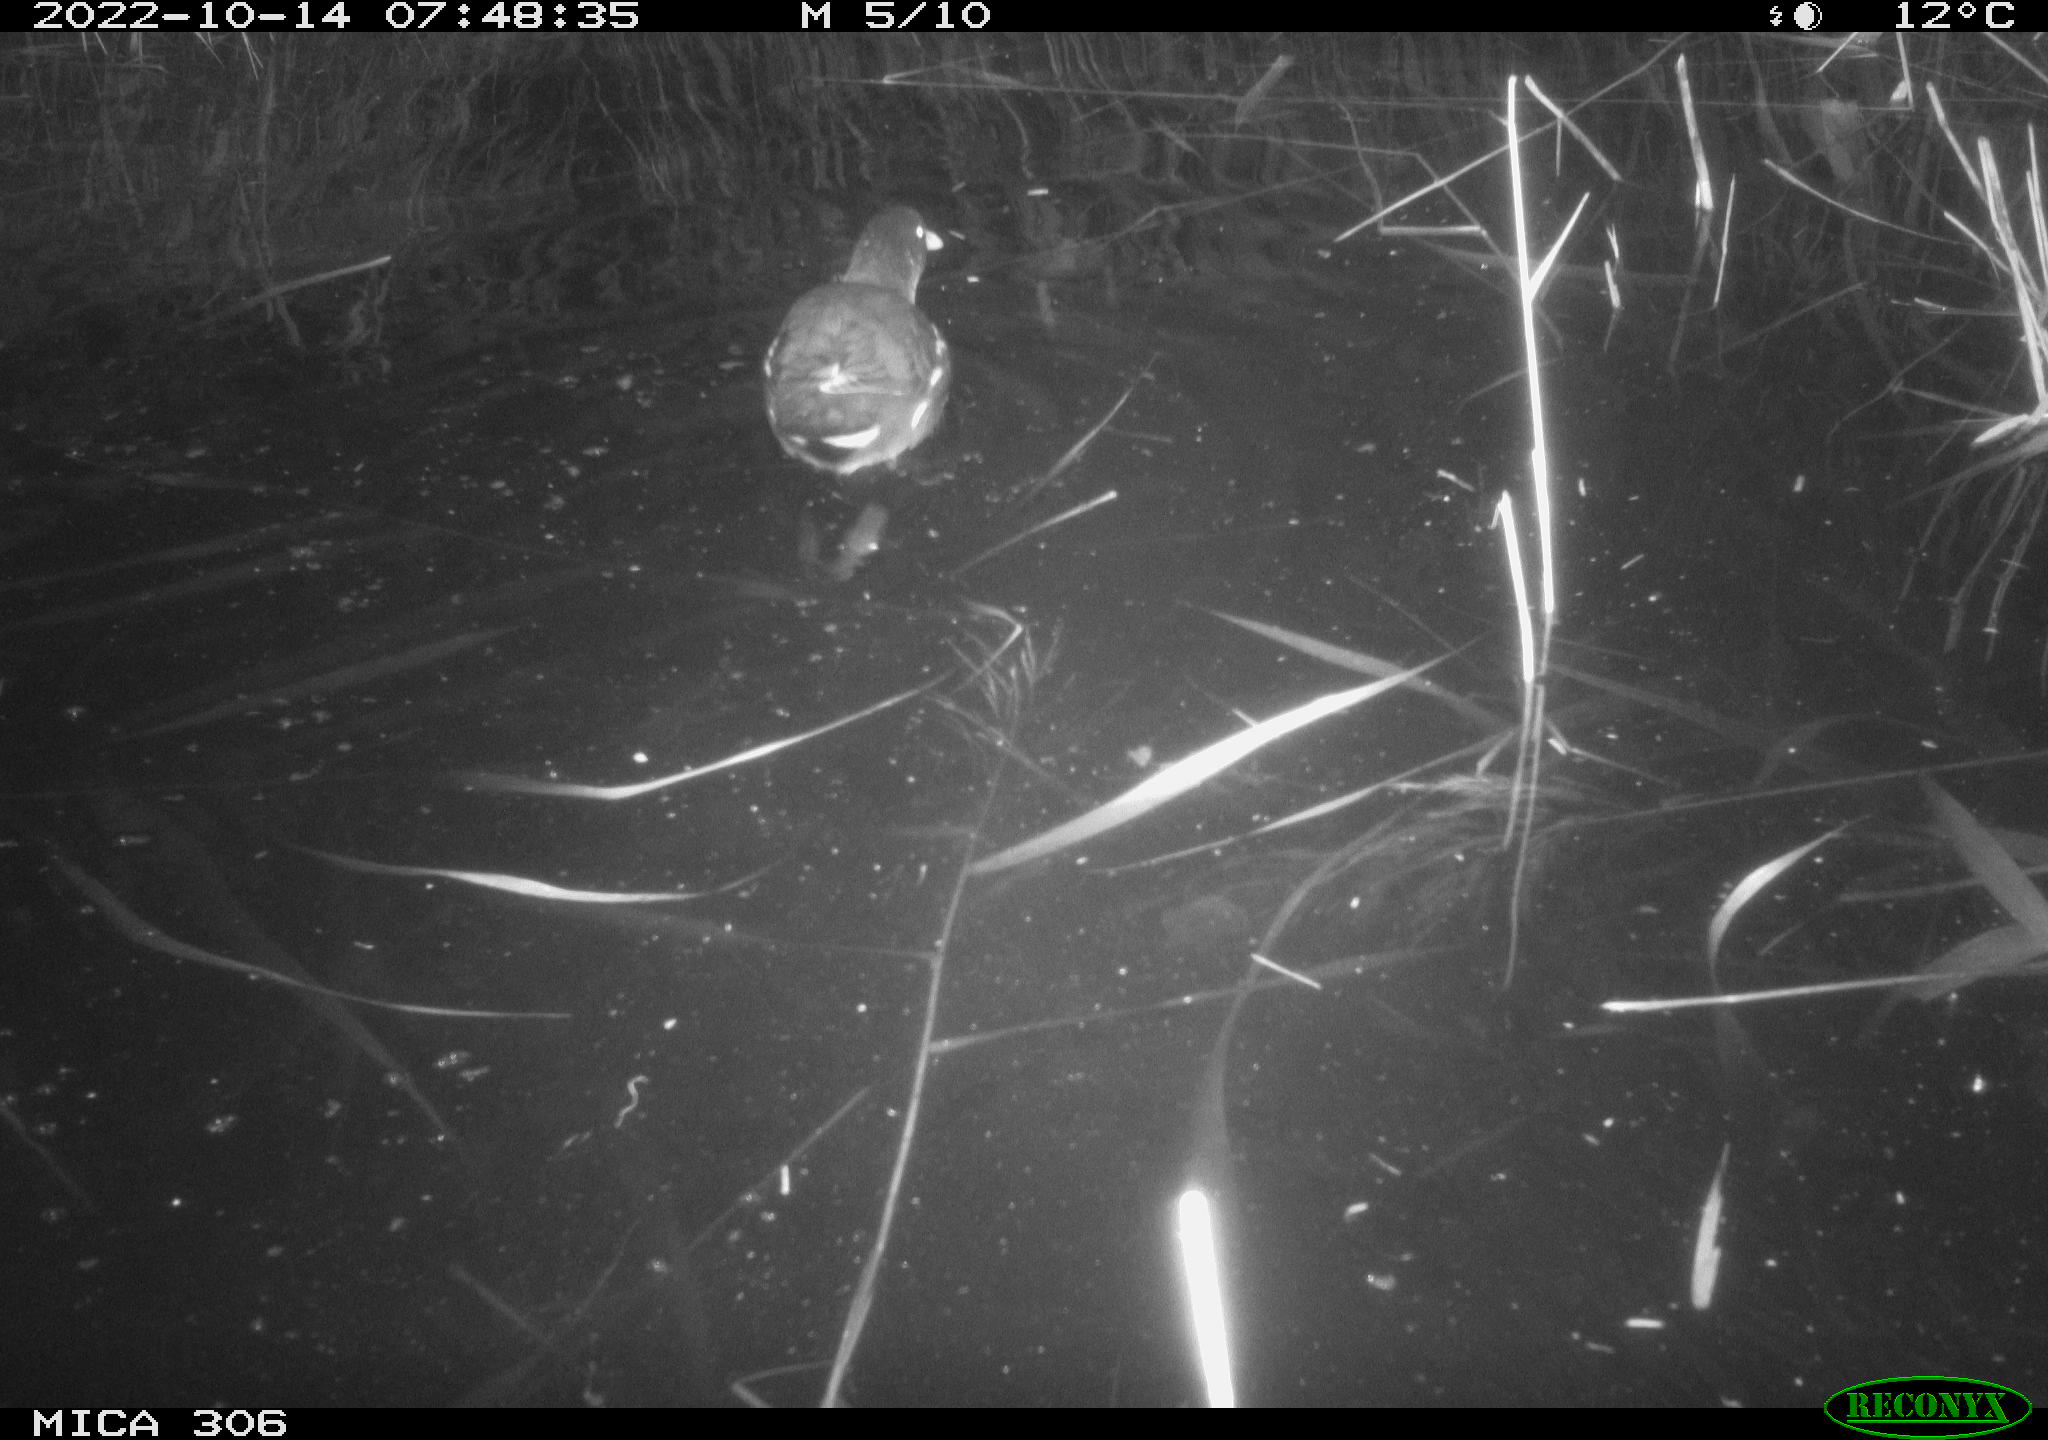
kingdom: Animalia
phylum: Chordata
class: Aves
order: Gruiformes
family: Rallidae
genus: Gallinula
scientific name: Gallinula chloropus
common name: Common moorhen
